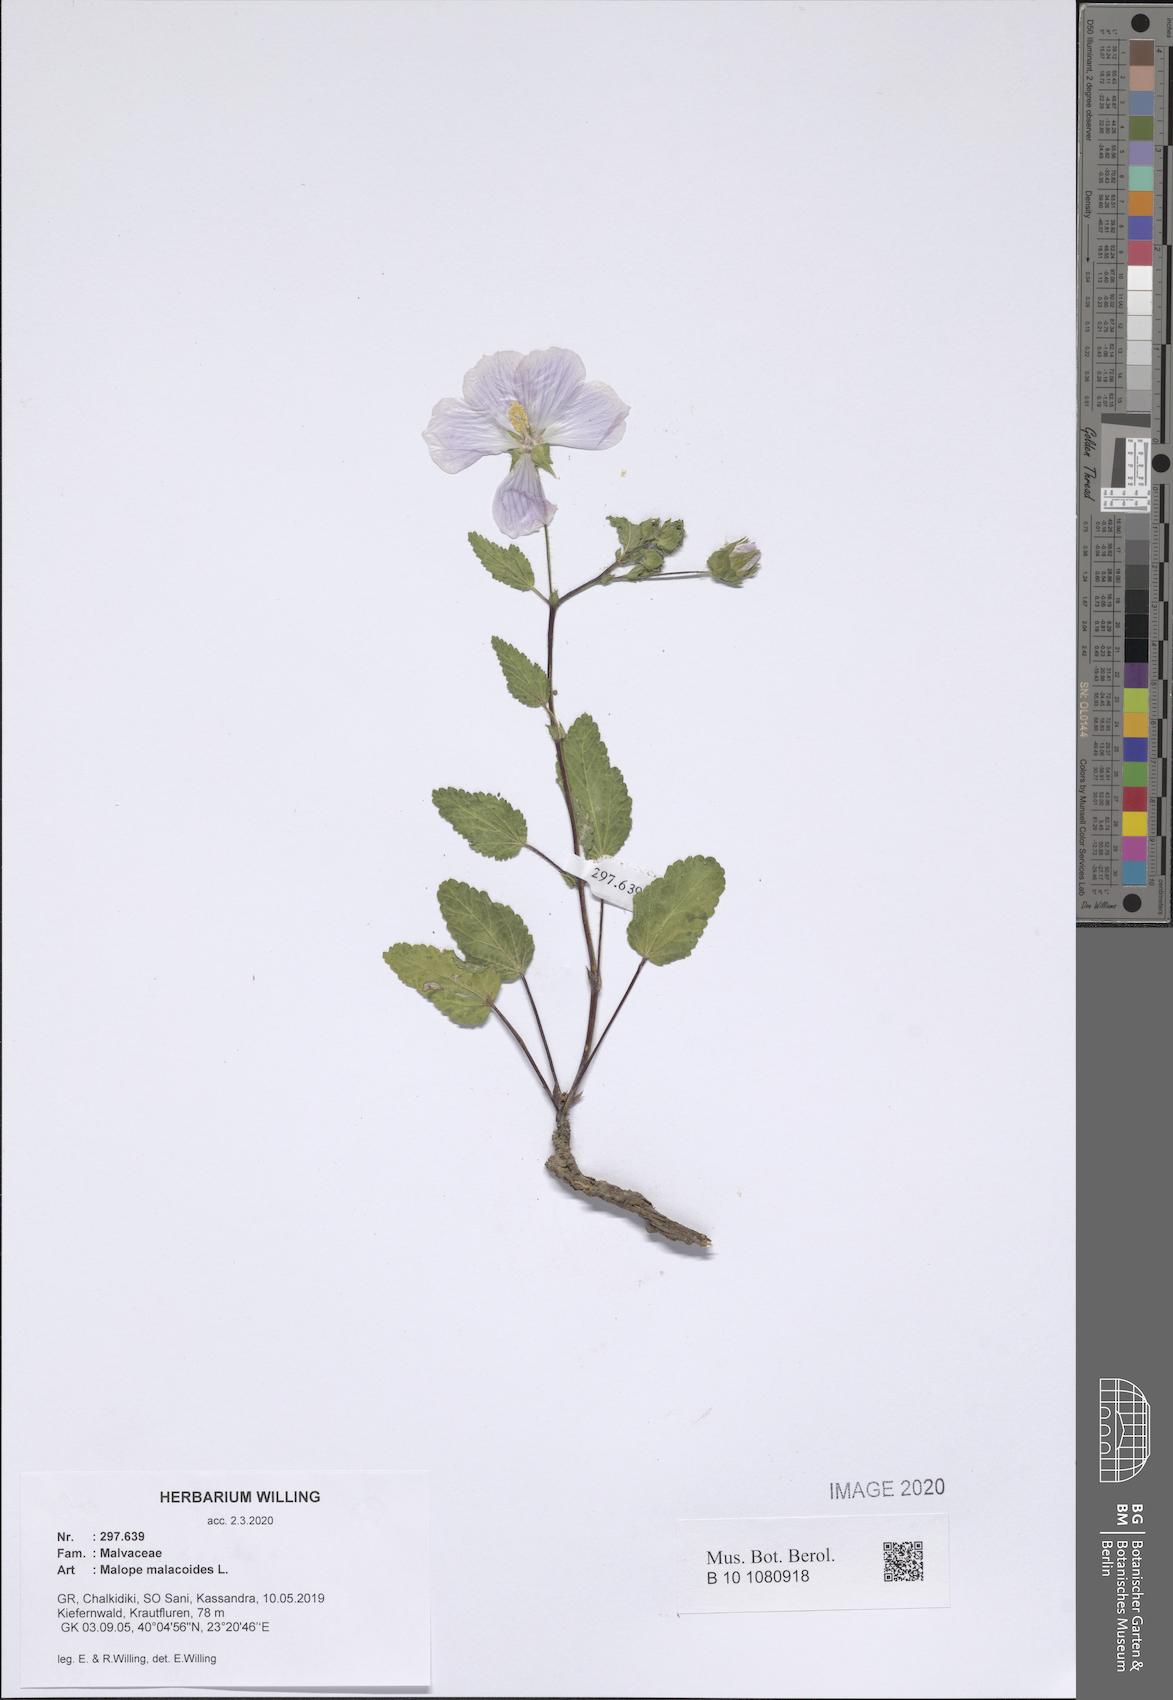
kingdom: Plantae
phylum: Tracheophyta
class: Magnoliopsida
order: Malvales
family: Malvaceae
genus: Malope
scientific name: Malope malacoides
